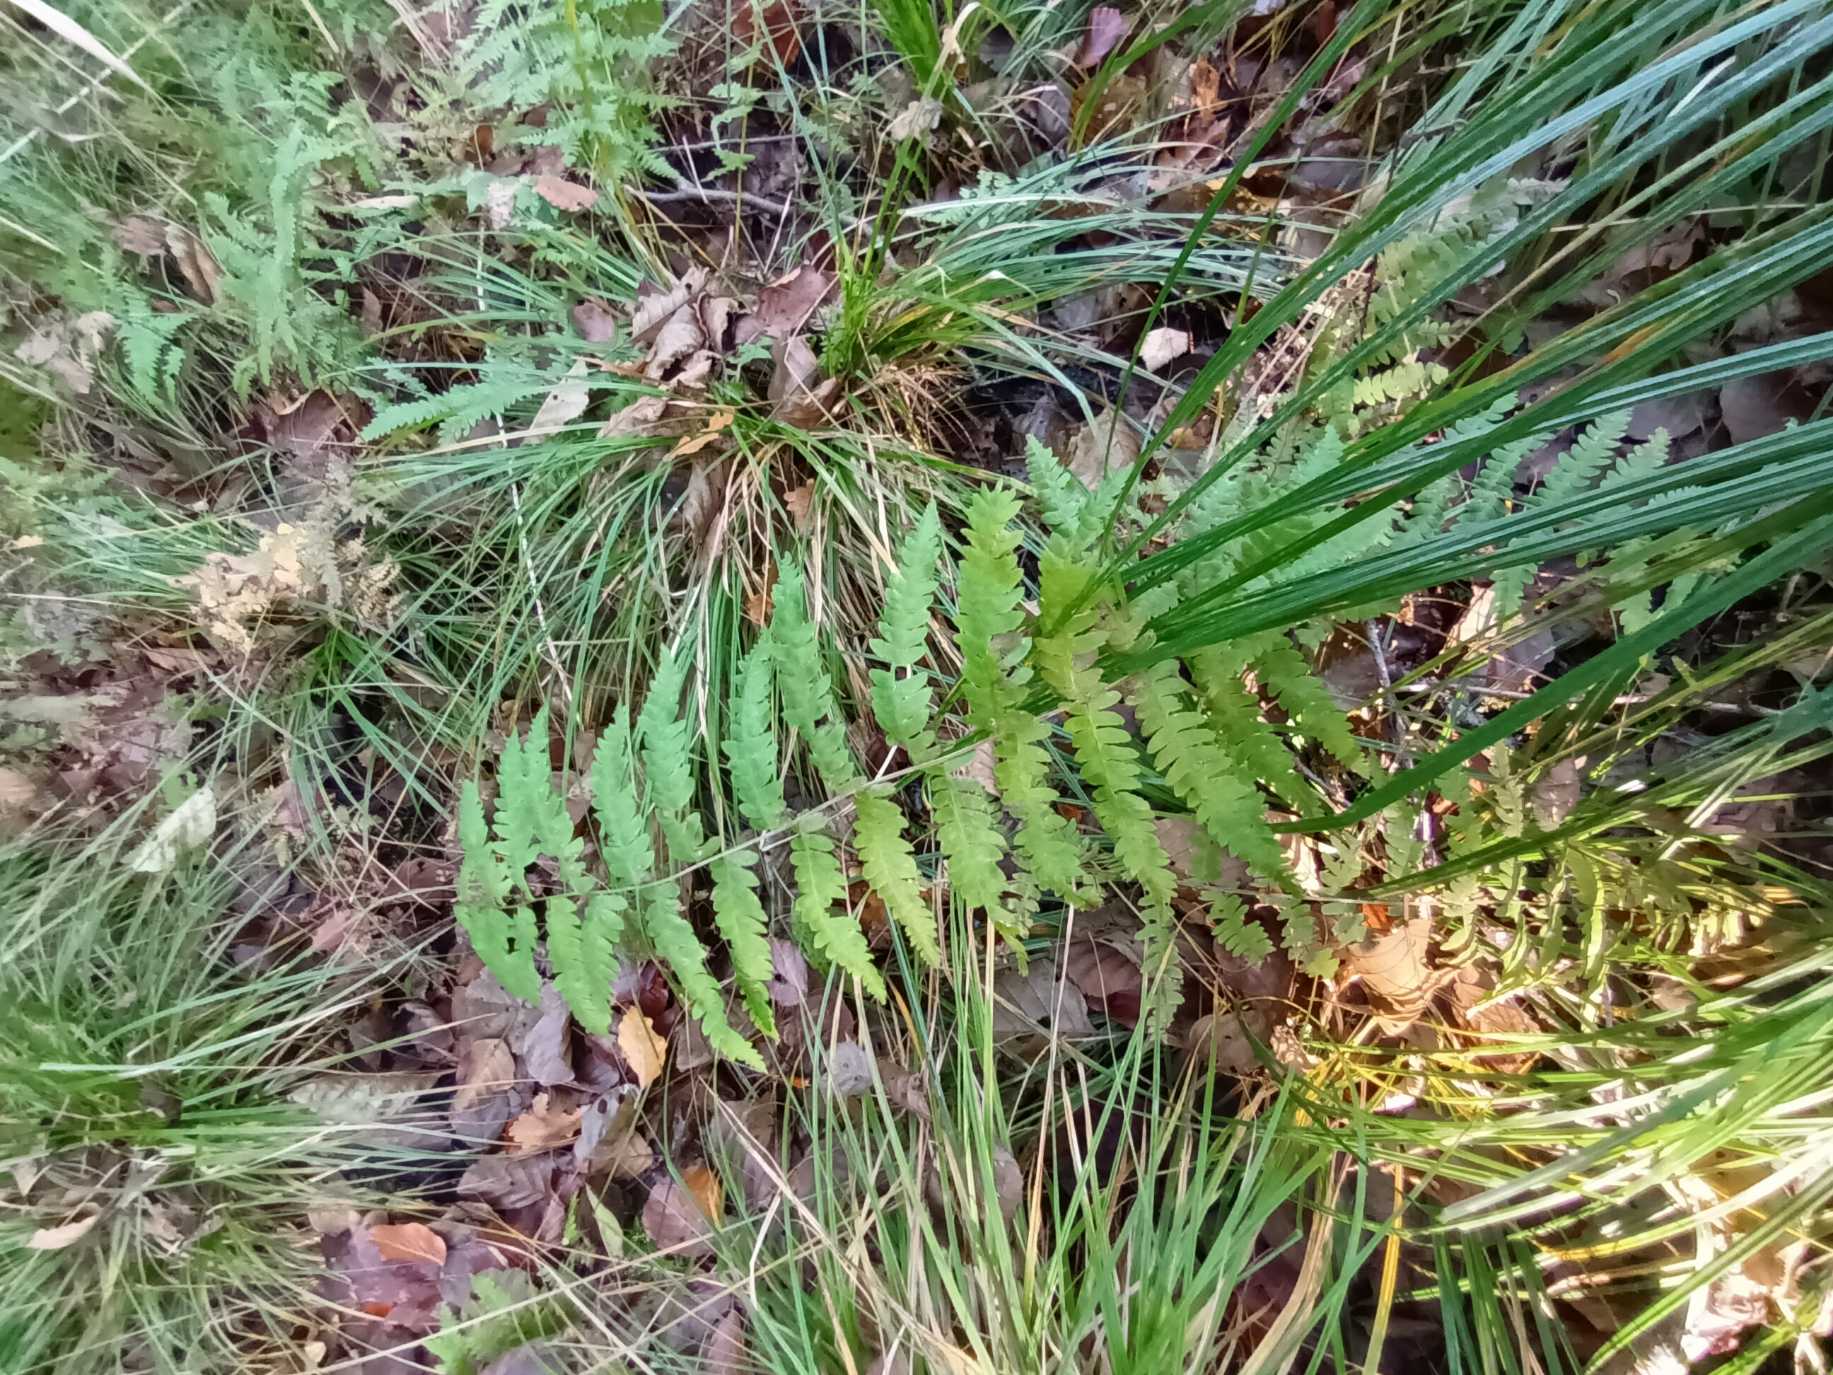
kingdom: Plantae
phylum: Tracheophyta
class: Polypodiopsida
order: Polypodiales
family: Thelypteridaceae
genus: Thelypteris
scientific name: Thelypteris palustris
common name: Kærmangeløv
